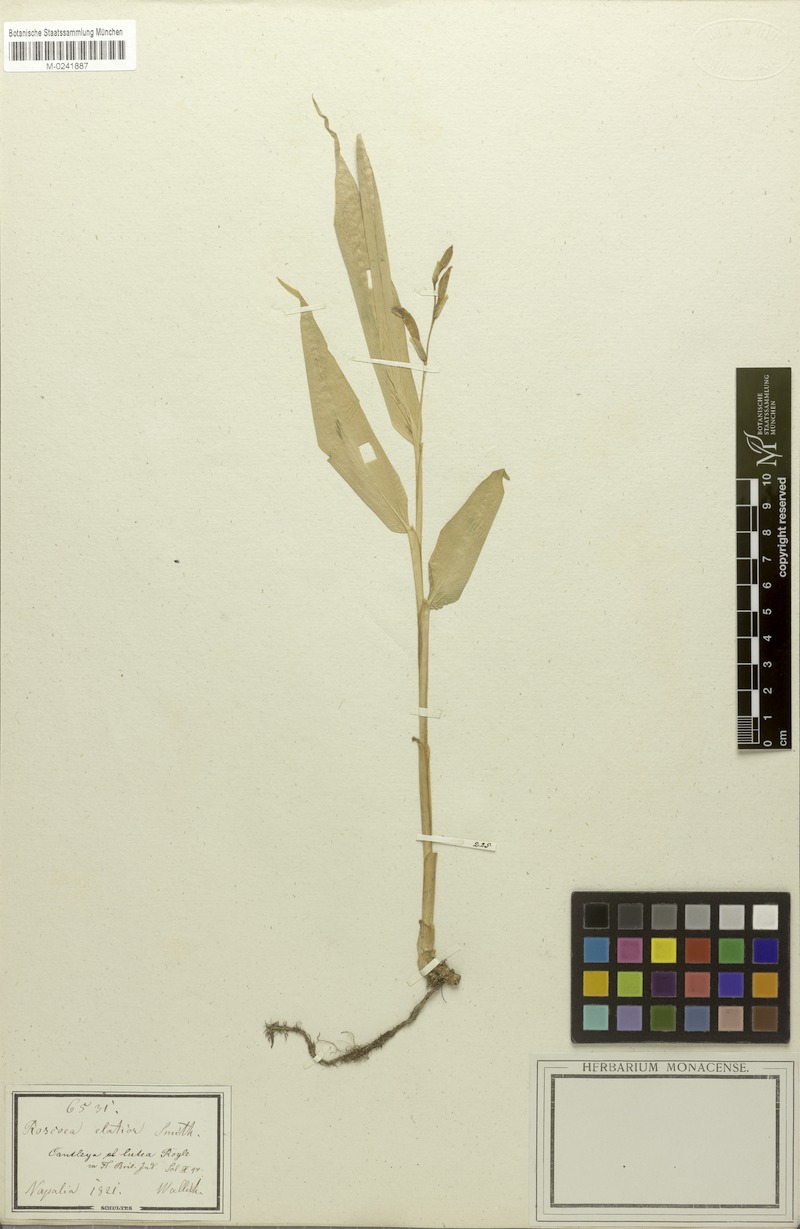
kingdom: Plantae
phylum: Tracheophyta
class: Liliopsida
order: Zingiberales
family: Zingiberaceae
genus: Cautleya
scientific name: Cautleya gracilis
